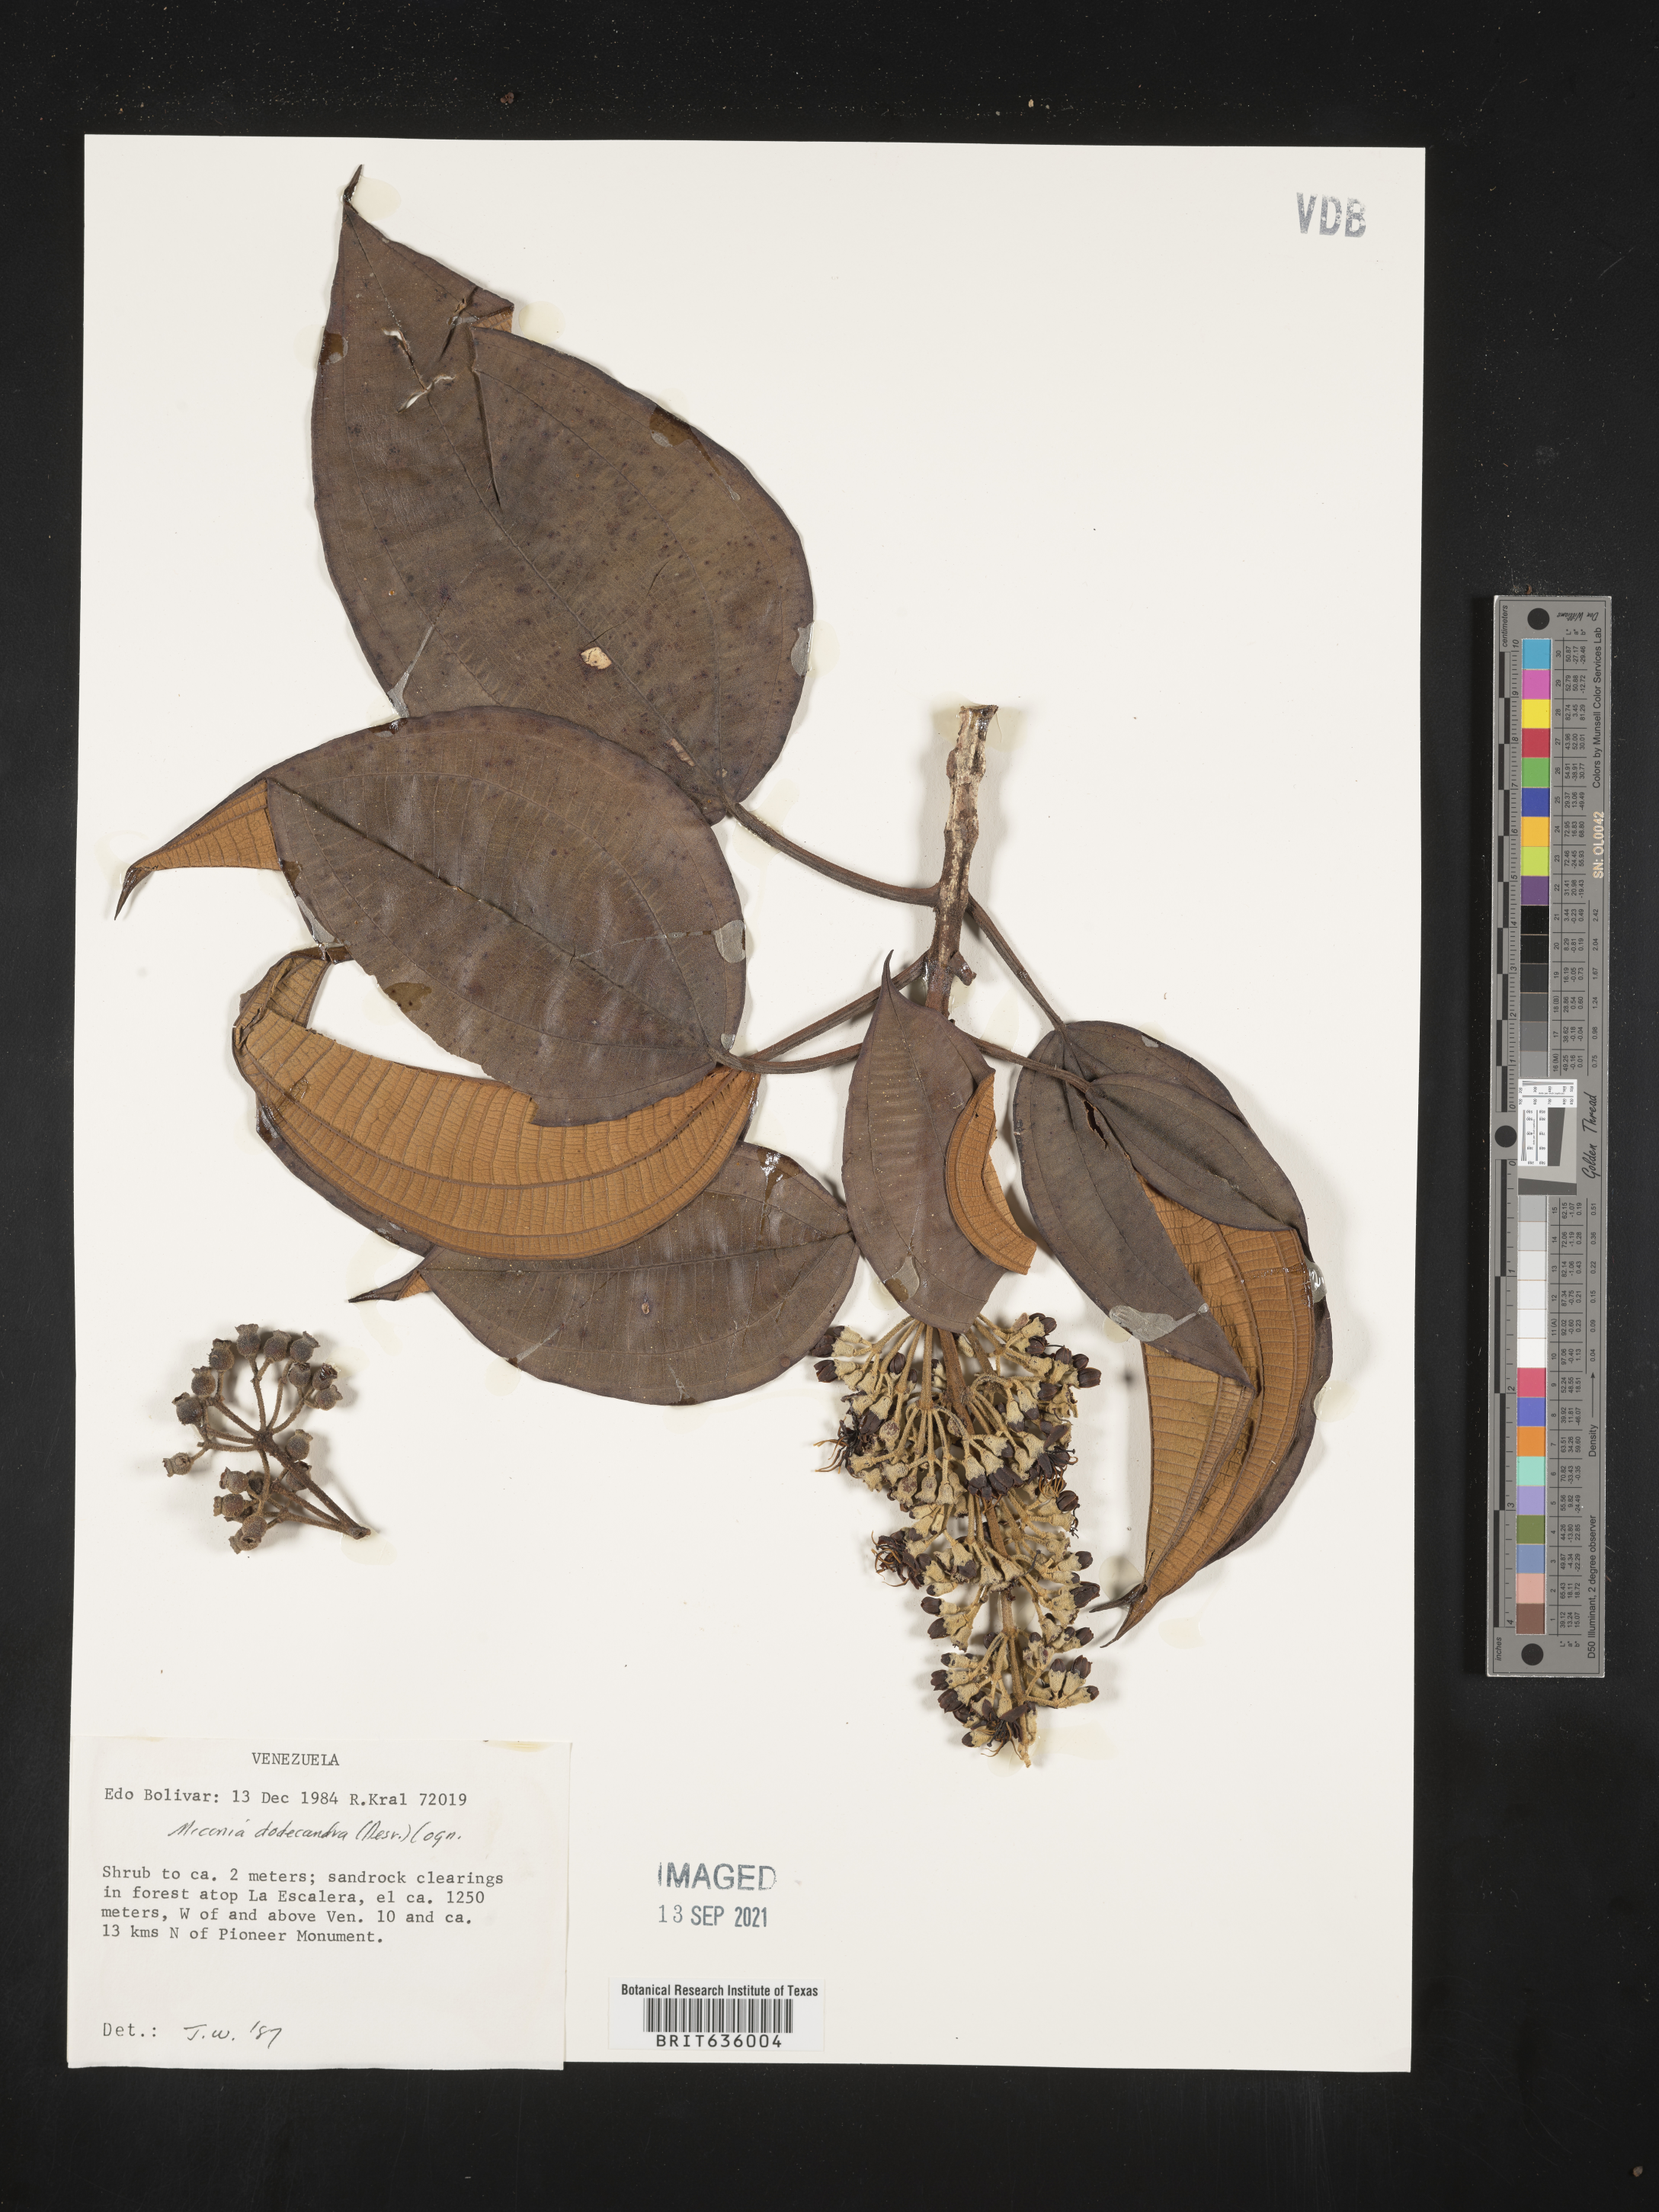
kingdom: Plantae
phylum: Tracheophyta
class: Magnoliopsida
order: Myrtales
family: Melastomataceae
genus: Miconia
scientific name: Miconia
